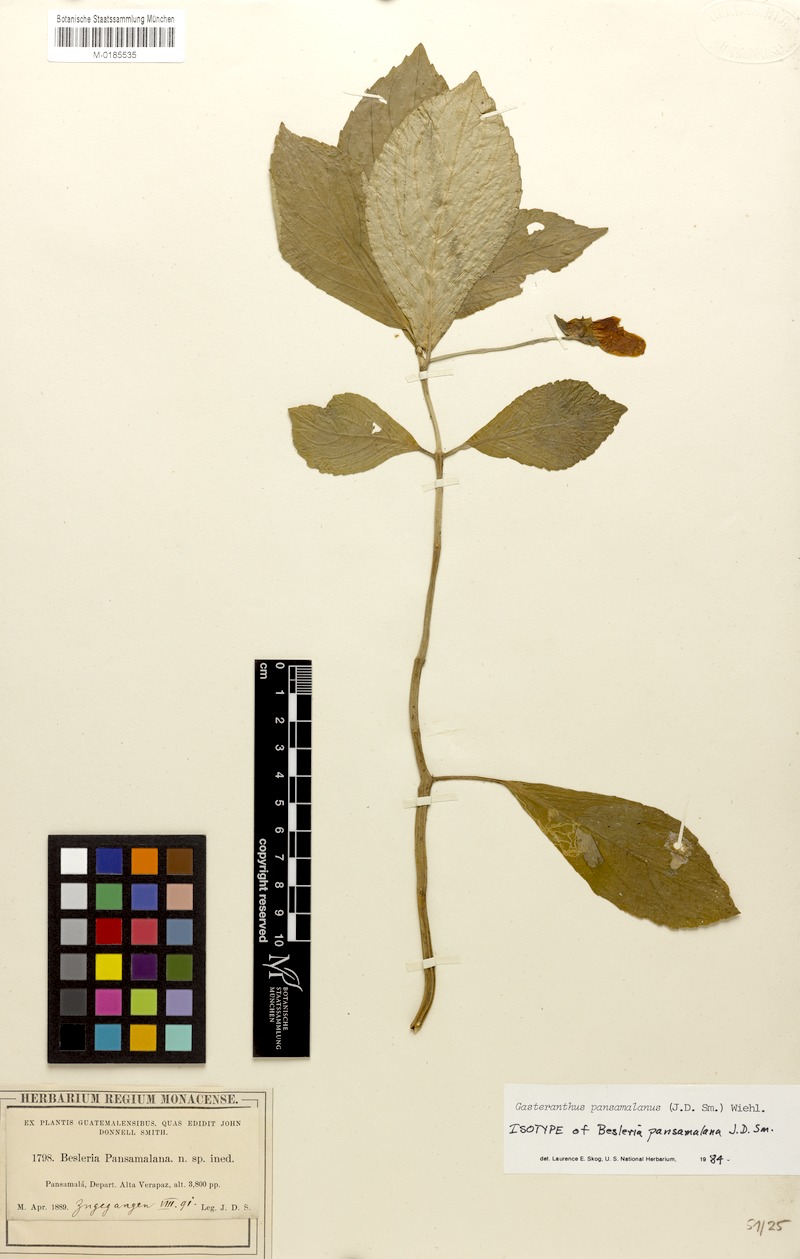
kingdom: Plantae
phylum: Tracheophyta
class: Magnoliopsida
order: Lamiales
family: Gesneriaceae
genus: Gasteranthus
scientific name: Gasteranthus pansamalanus
